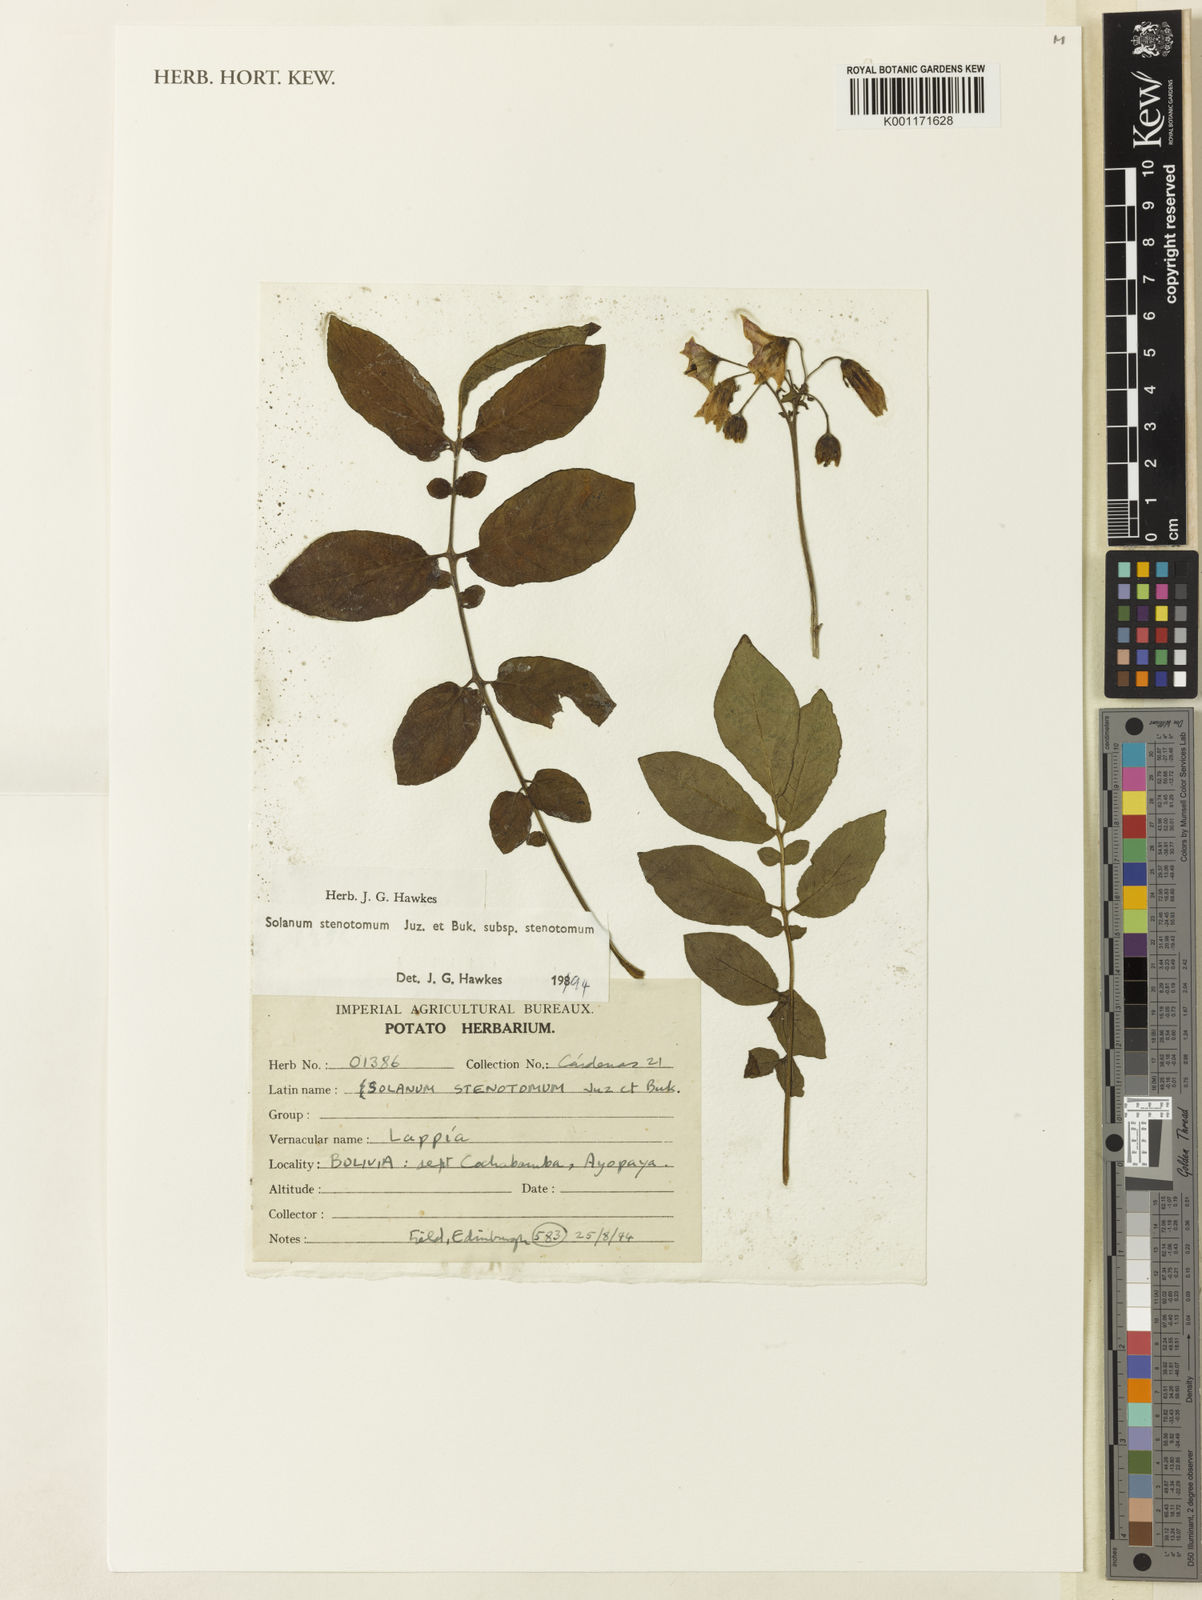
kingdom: Plantae
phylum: Tracheophyta
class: Magnoliopsida
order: Solanales
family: Solanaceae
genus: Solanum
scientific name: Solanum tuberosum
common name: Potato
